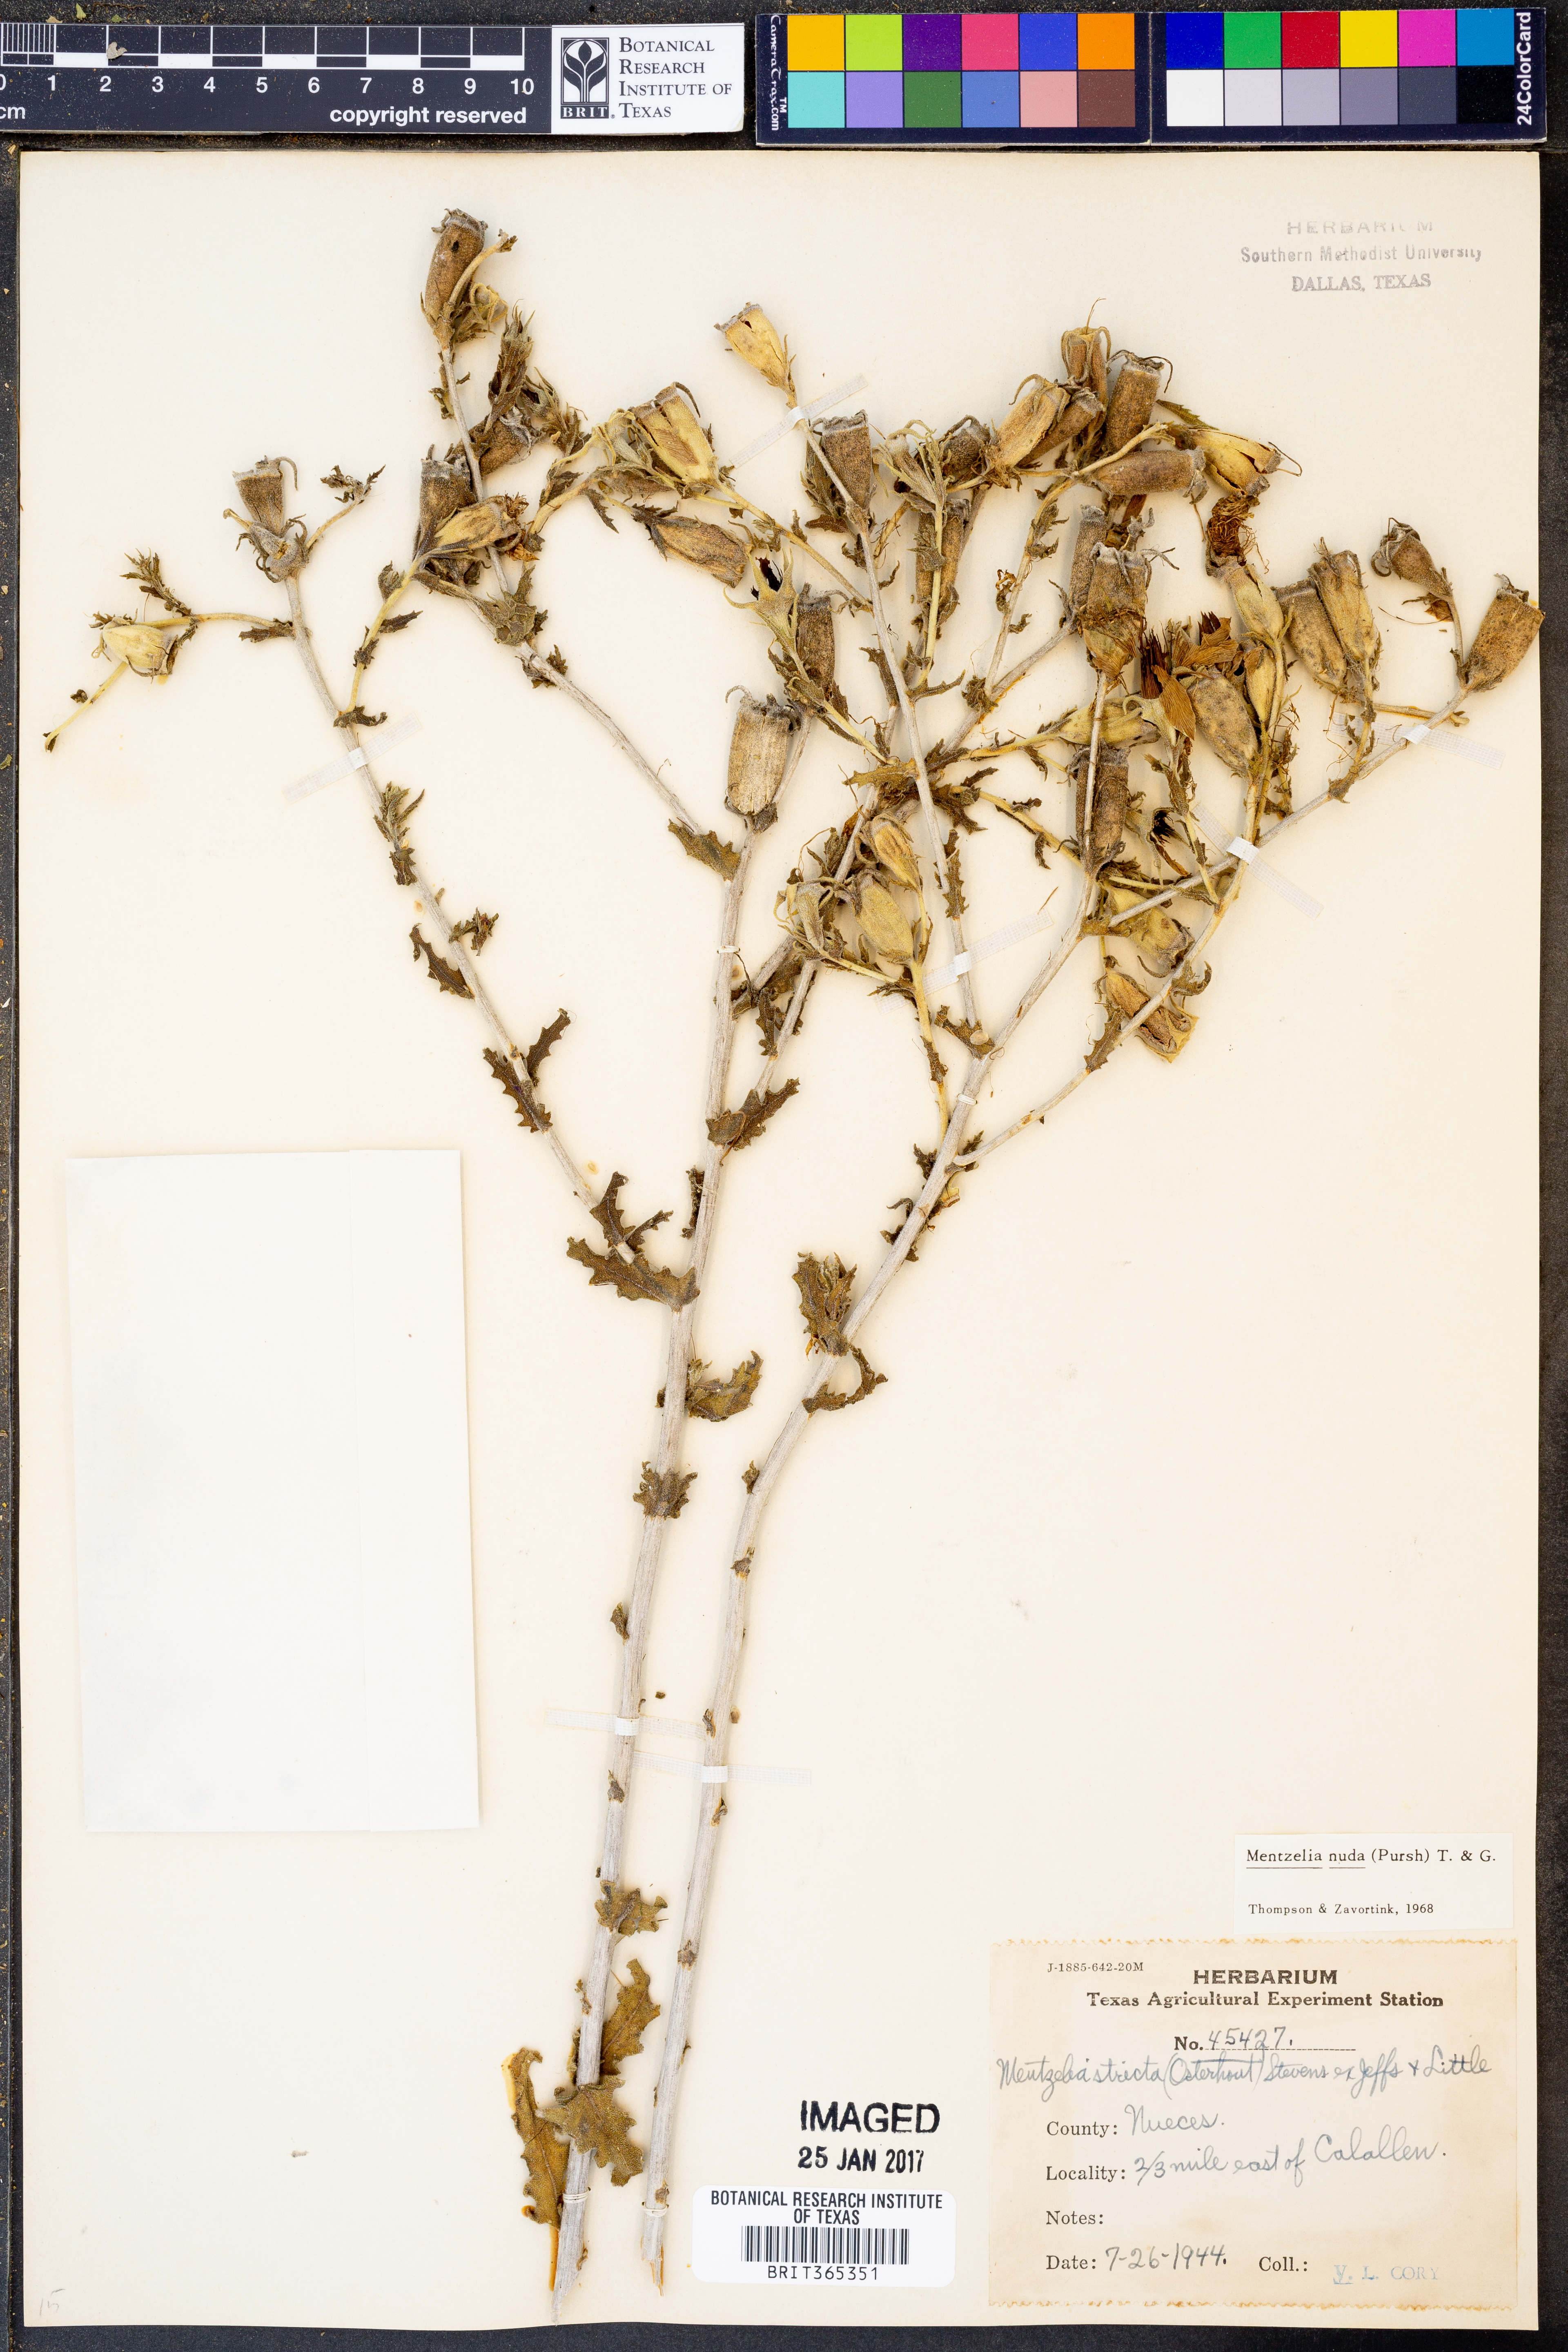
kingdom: Plantae
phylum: Tracheophyta
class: Magnoliopsida
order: Cornales
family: Loasaceae
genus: Mentzelia
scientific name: Mentzelia nuda
